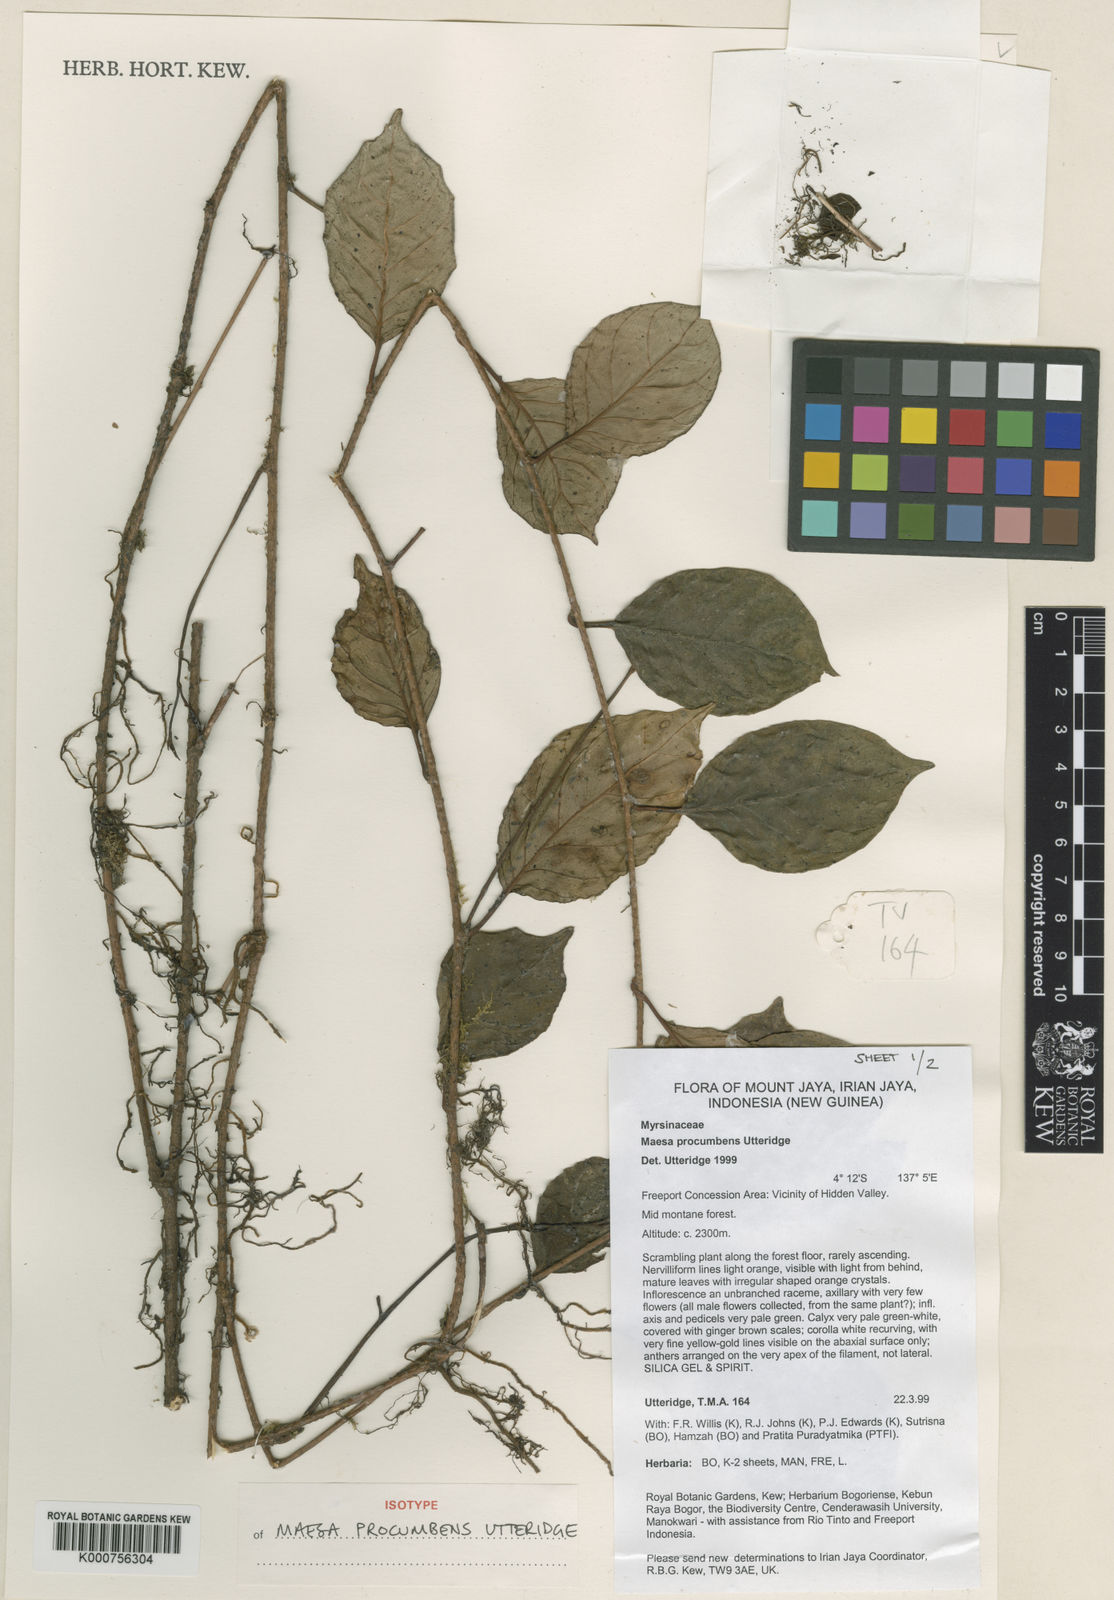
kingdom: Plantae
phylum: Tracheophyta
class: Magnoliopsida
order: Ericales
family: Primulaceae
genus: Maesa
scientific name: Maesa procumbens
